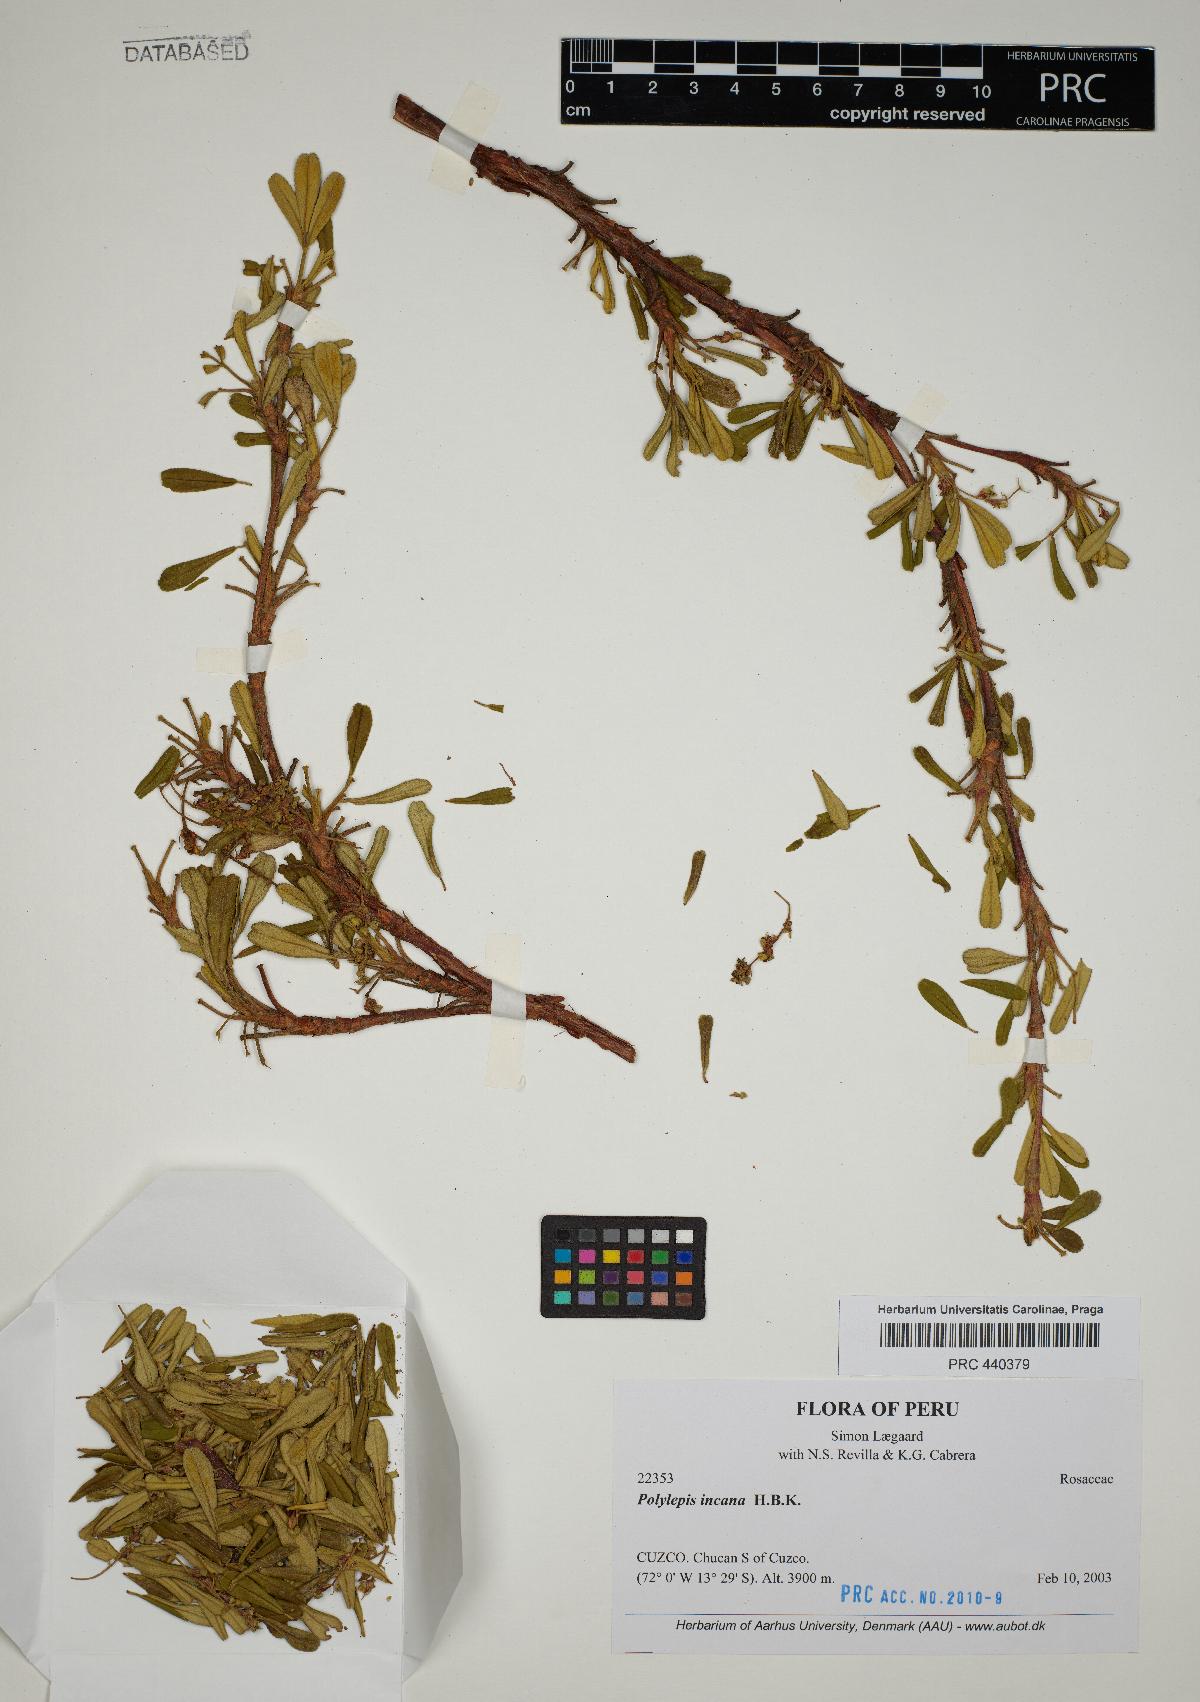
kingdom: Plantae
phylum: Tracheophyta
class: Magnoliopsida
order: Rosales
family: Rosaceae
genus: Polylepis
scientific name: Polylepis incana
